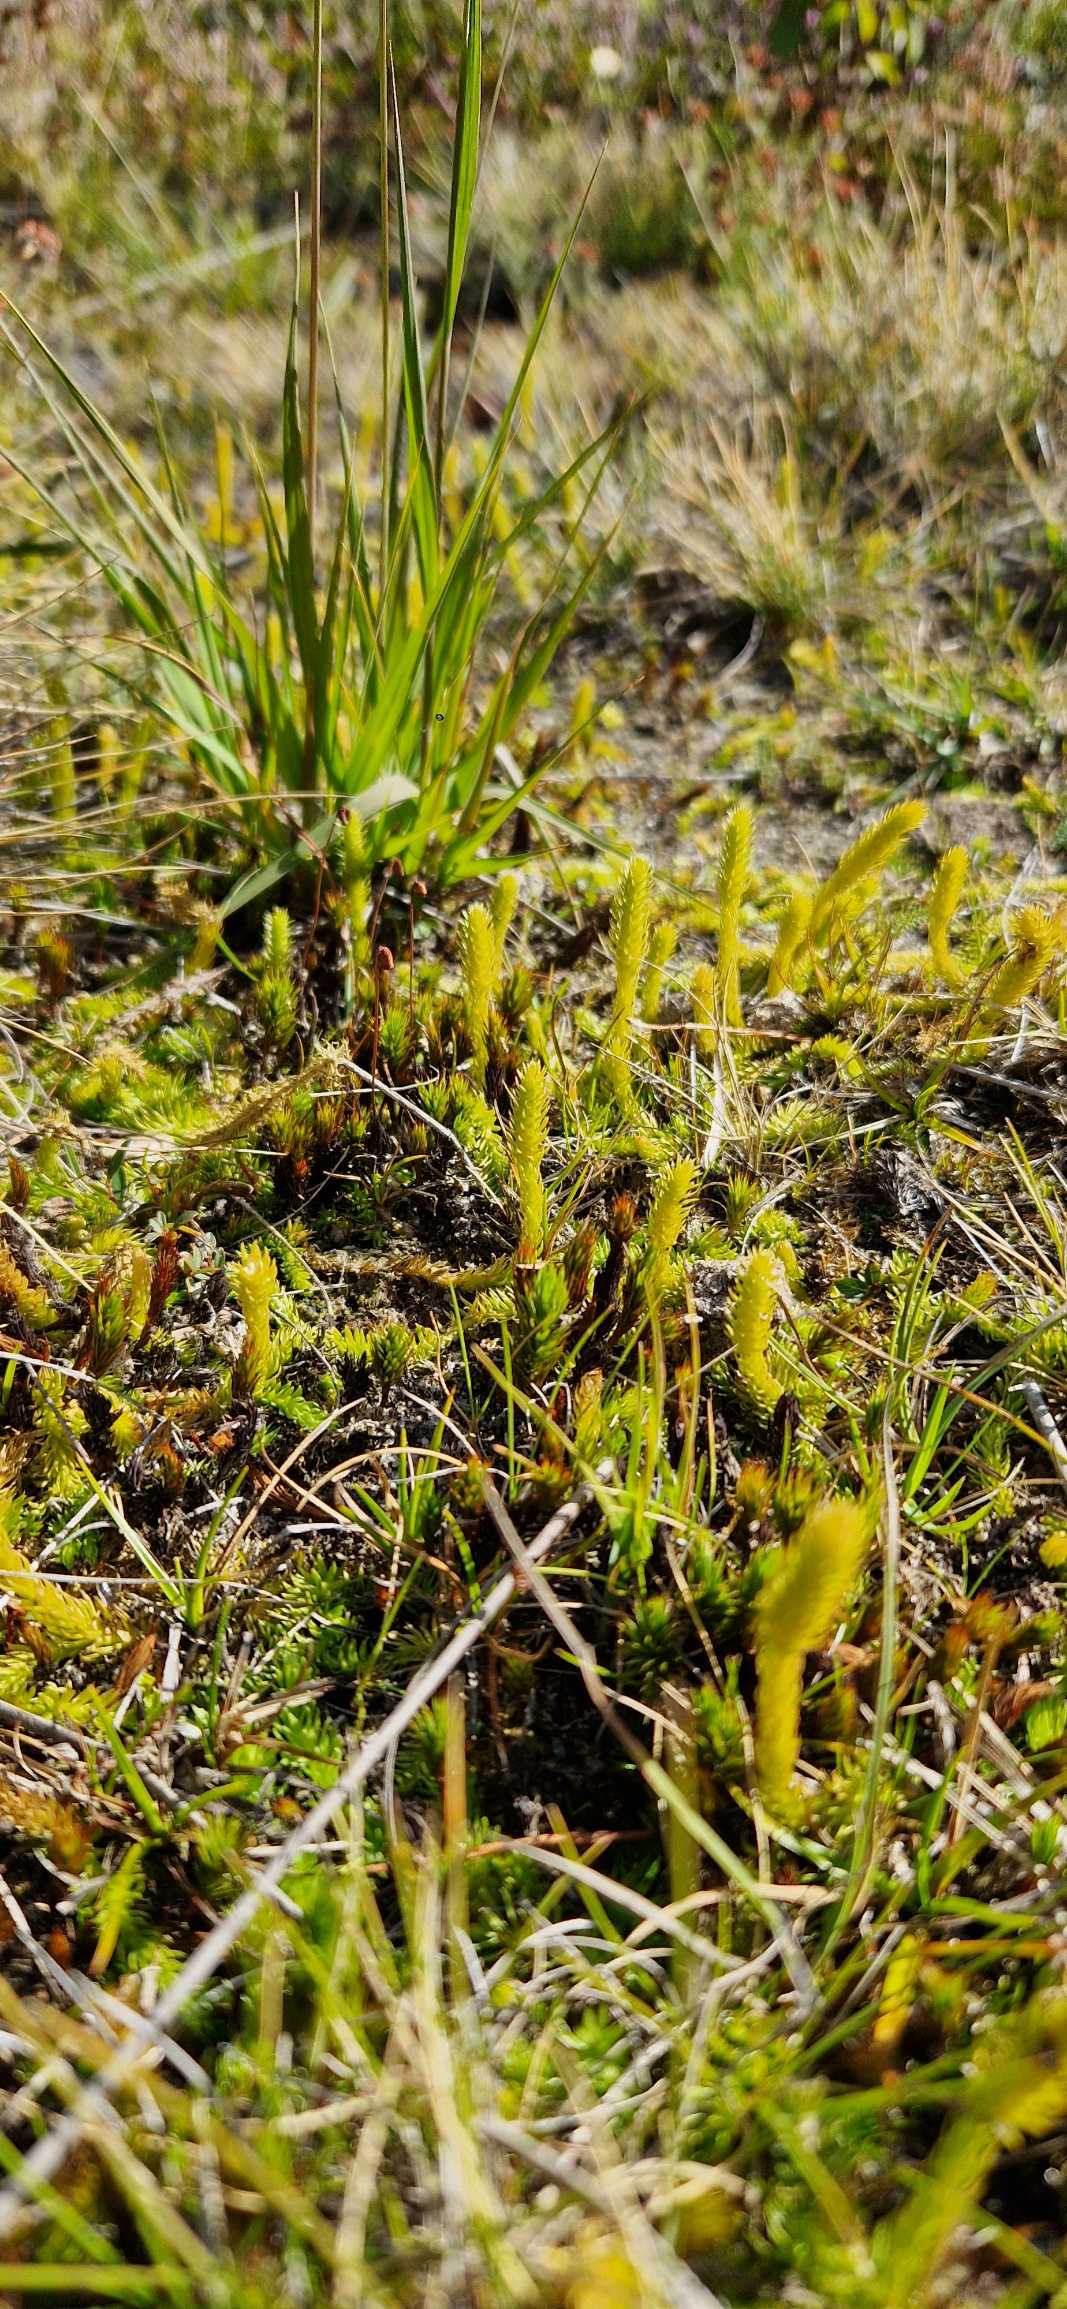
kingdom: Plantae
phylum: Tracheophyta
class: Lycopodiopsida
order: Lycopodiales
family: Lycopodiaceae
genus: Lycopodiella
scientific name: Lycopodiella inundata
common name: Liden ulvefod
